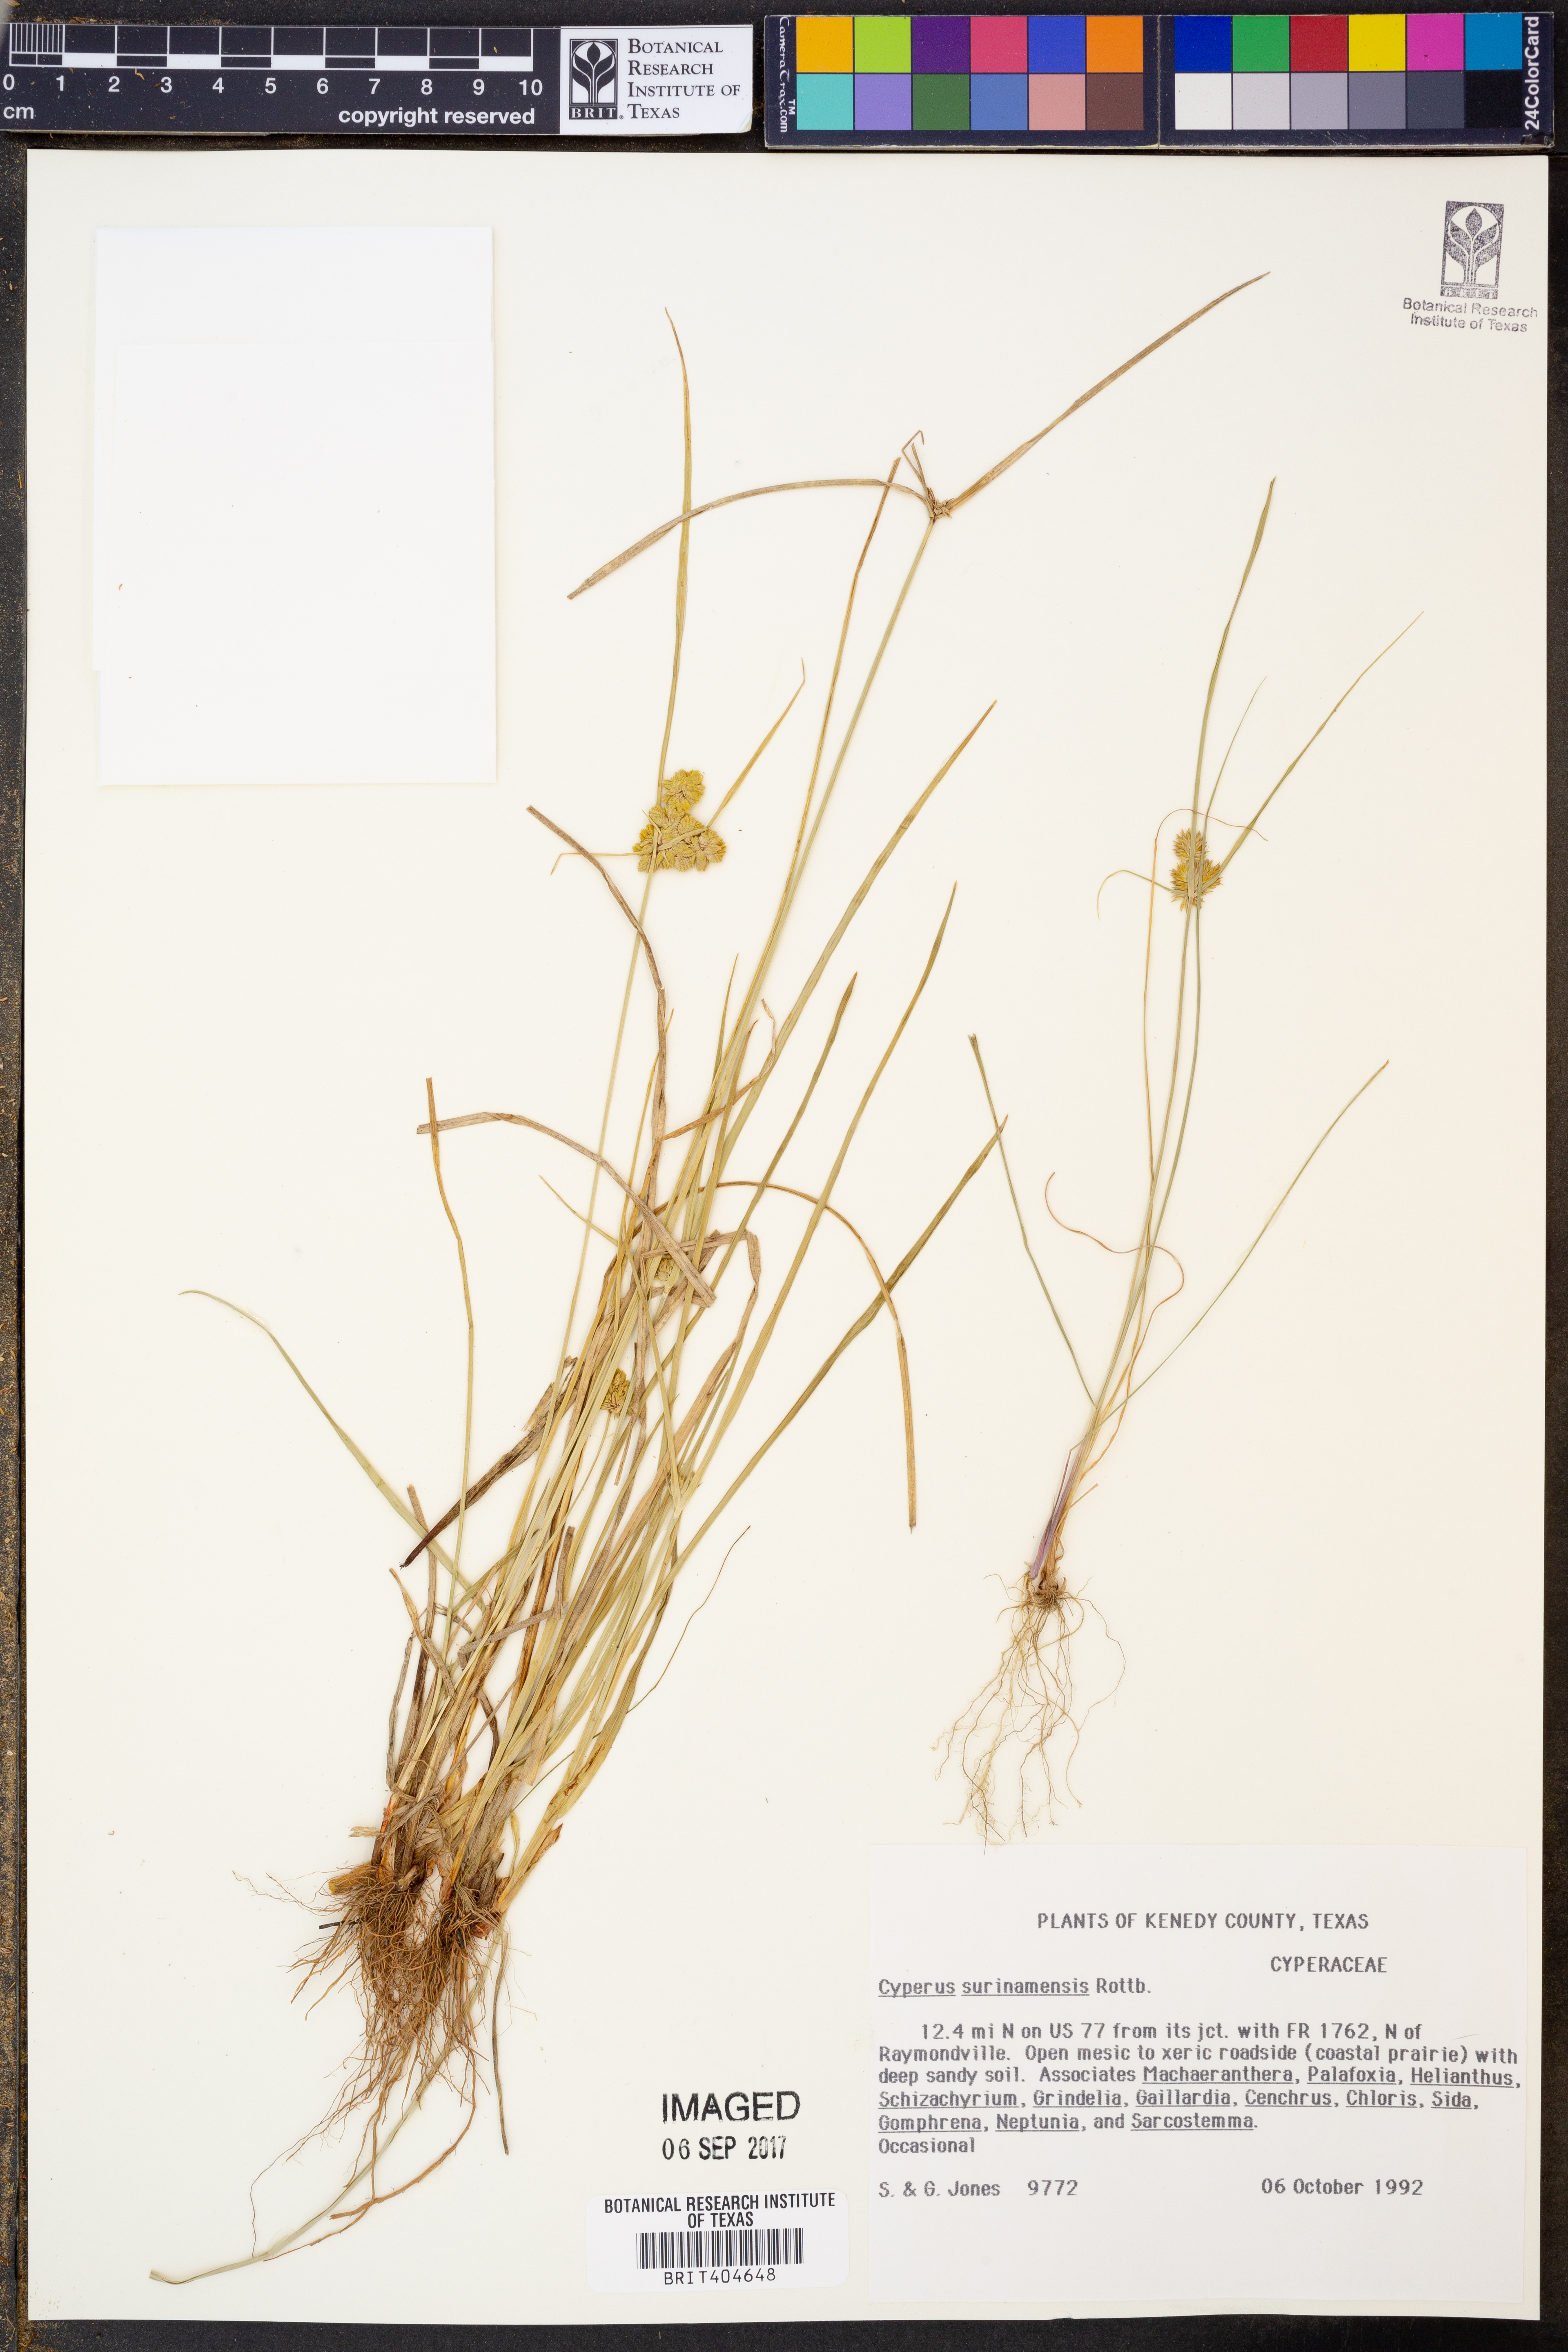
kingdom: Plantae
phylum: Tracheophyta
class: Liliopsida
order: Poales
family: Cyperaceae
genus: Cyperus
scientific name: Cyperus surinamensis
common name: Tropical flat sedge
